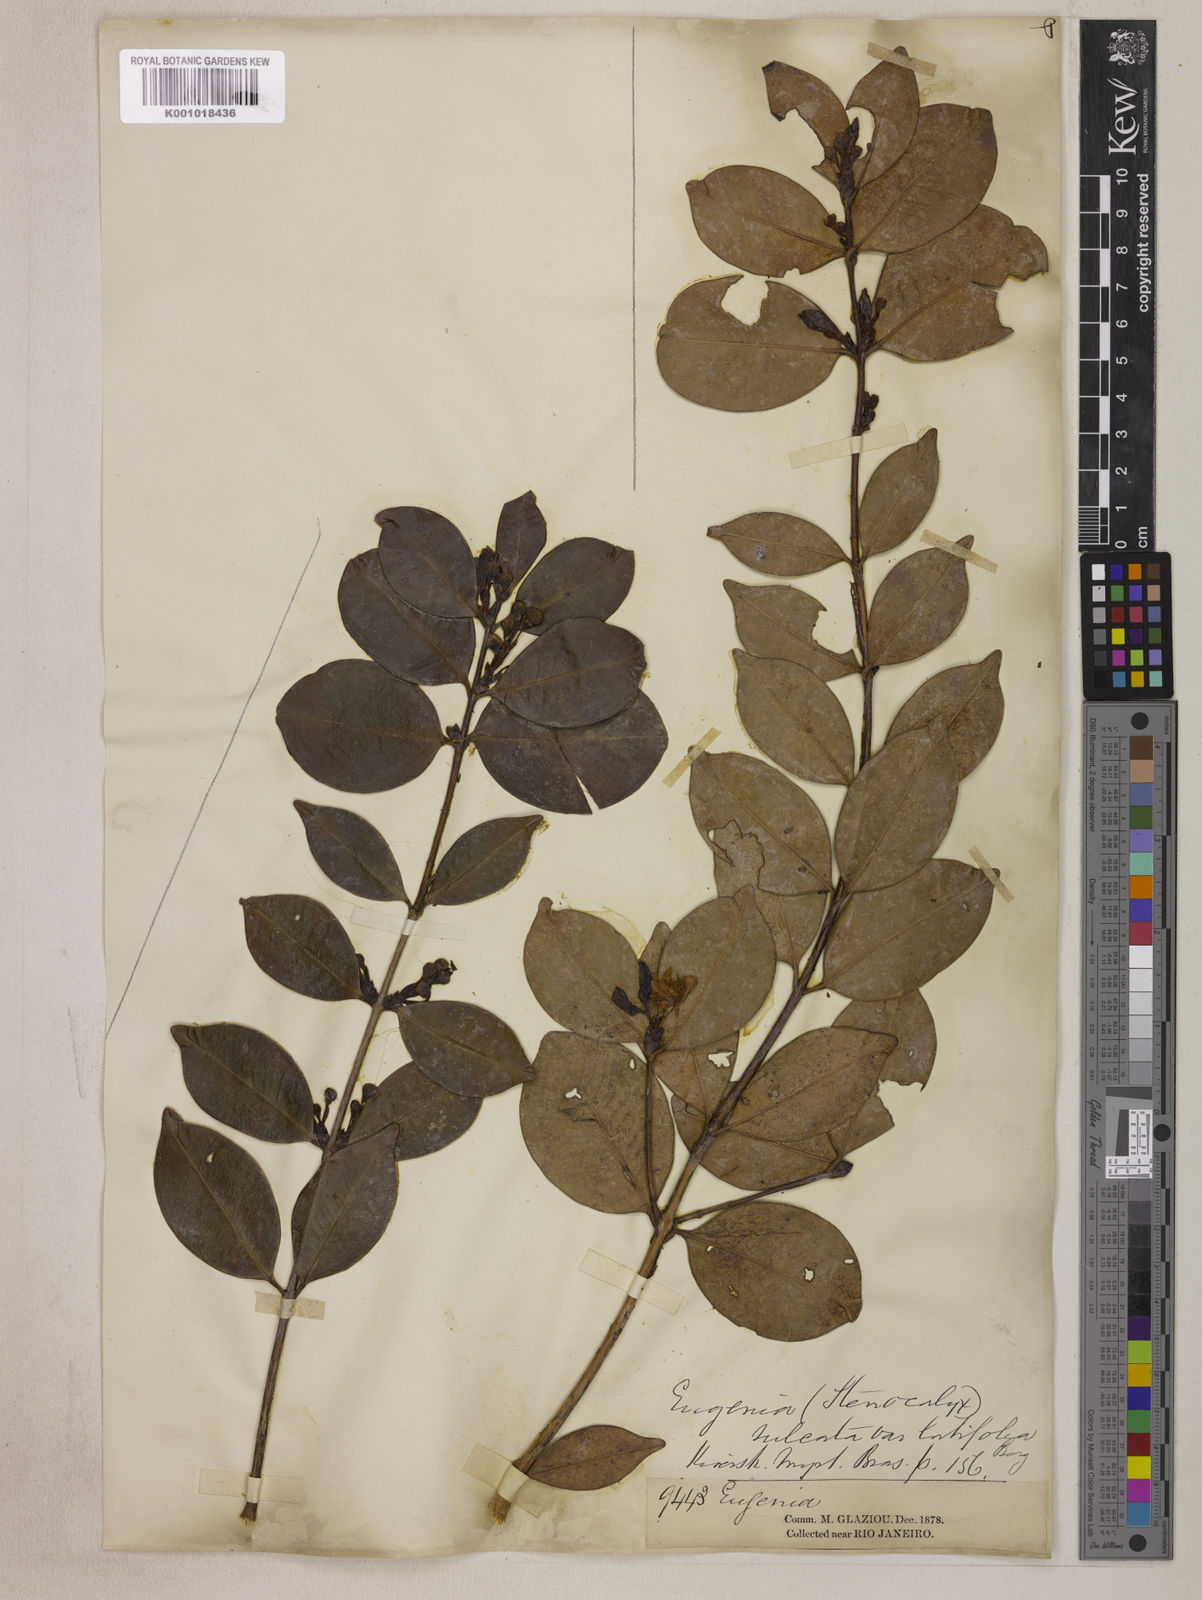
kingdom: Plantae
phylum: Tracheophyta
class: Magnoliopsida
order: Myrtales
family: Myrtaceae
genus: Eugenia
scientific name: Eugenia sulcata
